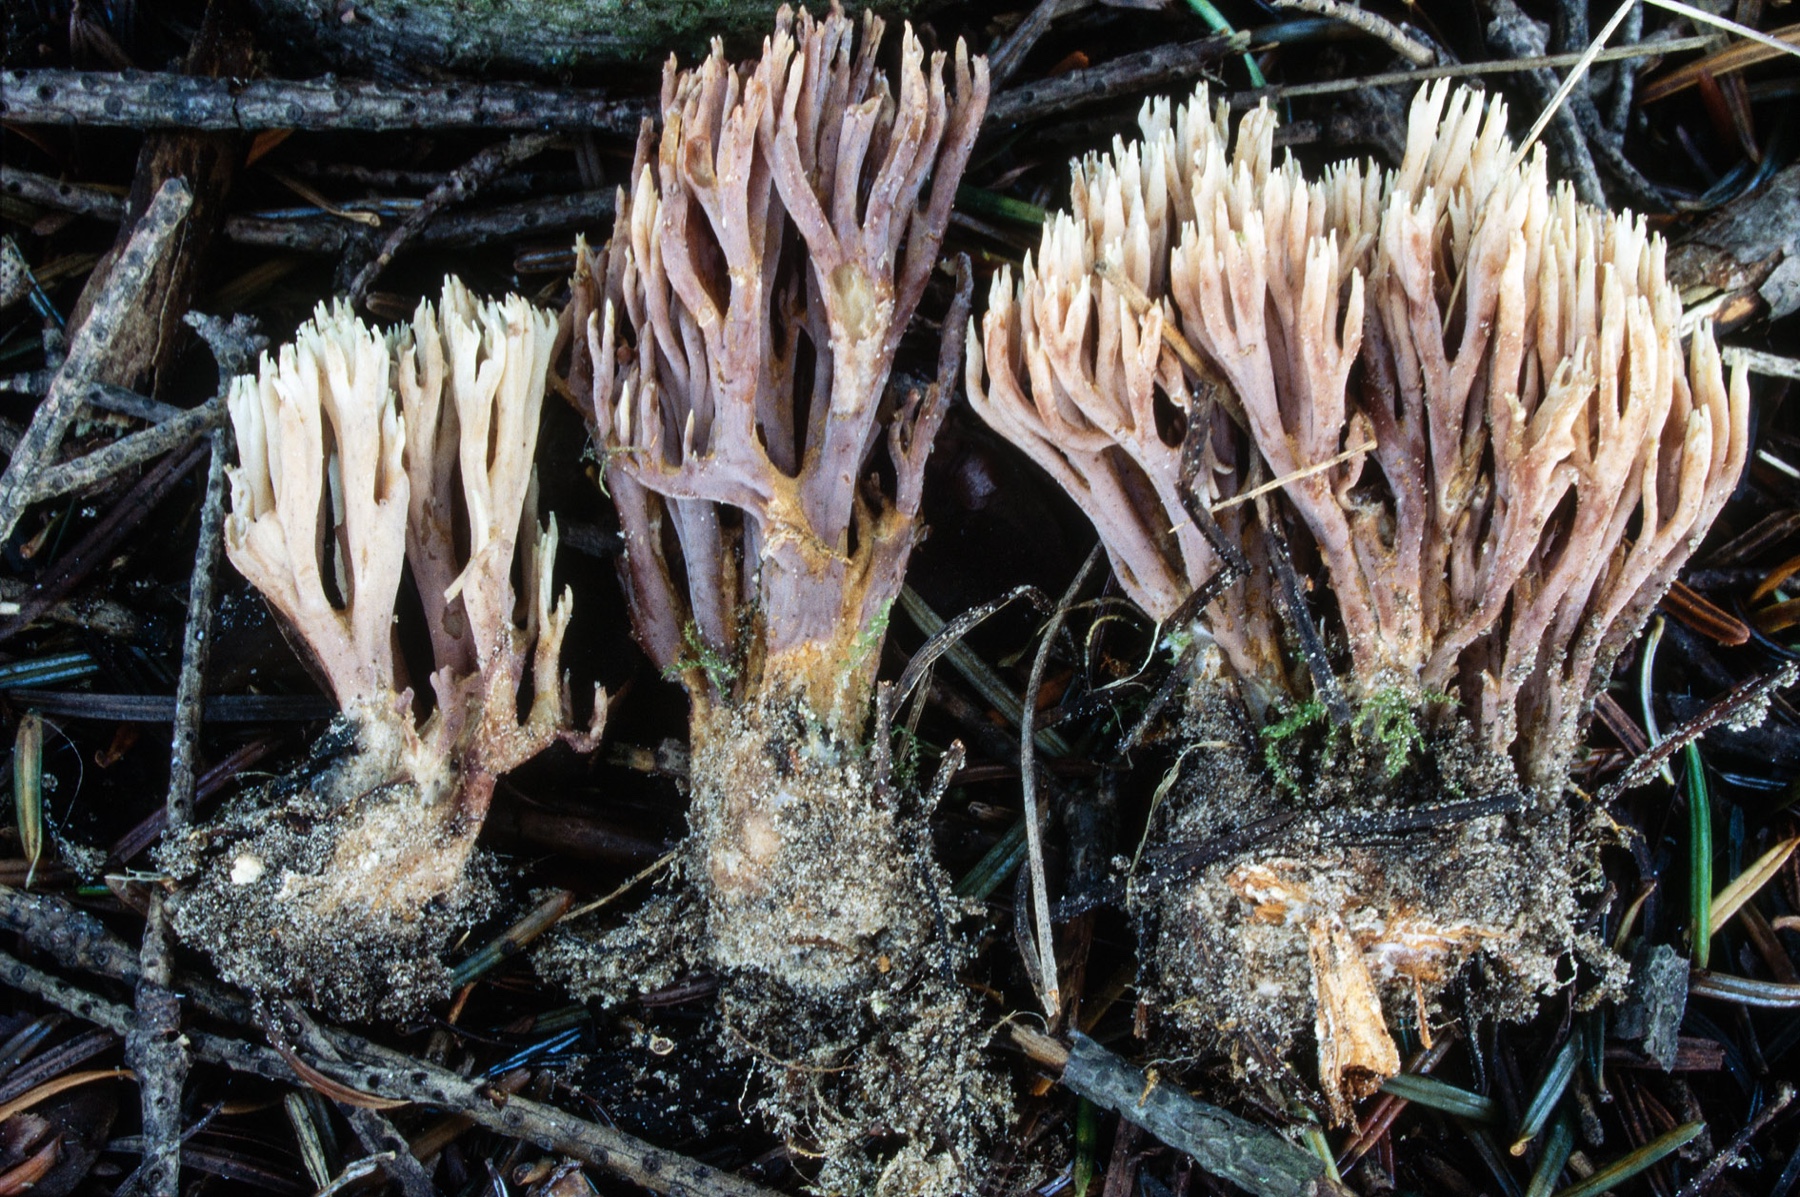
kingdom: Fungi
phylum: Basidiomycota
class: Agaricomycetes
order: Gomphales
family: Gomphaceae
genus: Ramaria
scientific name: Ramaria concolor
